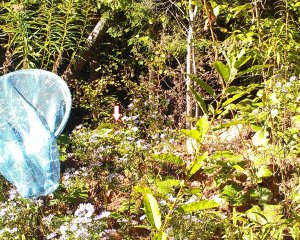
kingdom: Animalia
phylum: Arthropoda
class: Insecta
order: Lepidoptera
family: Nymphalidae
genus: Vanessa
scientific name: Vanessa virginiensis
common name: American Lady
